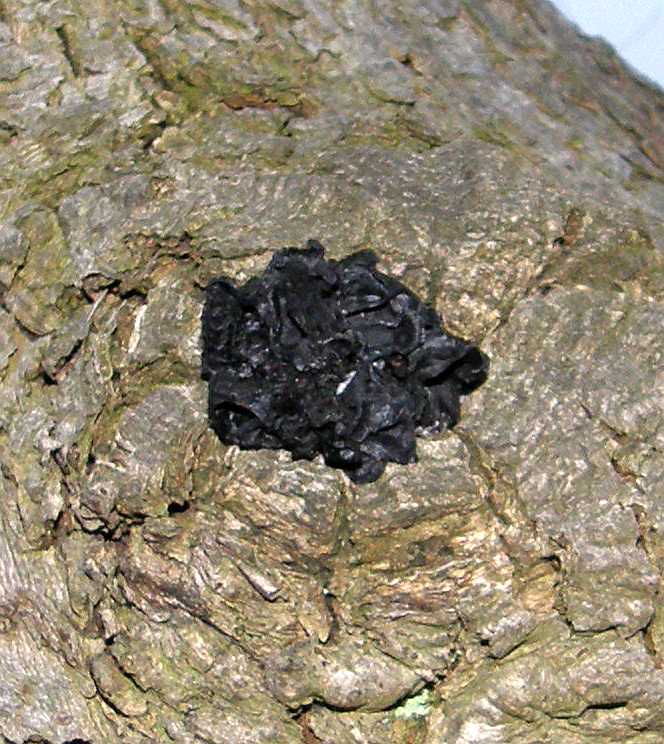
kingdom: Fungi
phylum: Basidiomycota
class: Agaricomycetes
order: Auriculariales
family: Auriculariaceae
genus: Exidia
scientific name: Exidia glandulosa
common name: ege-bævretop
